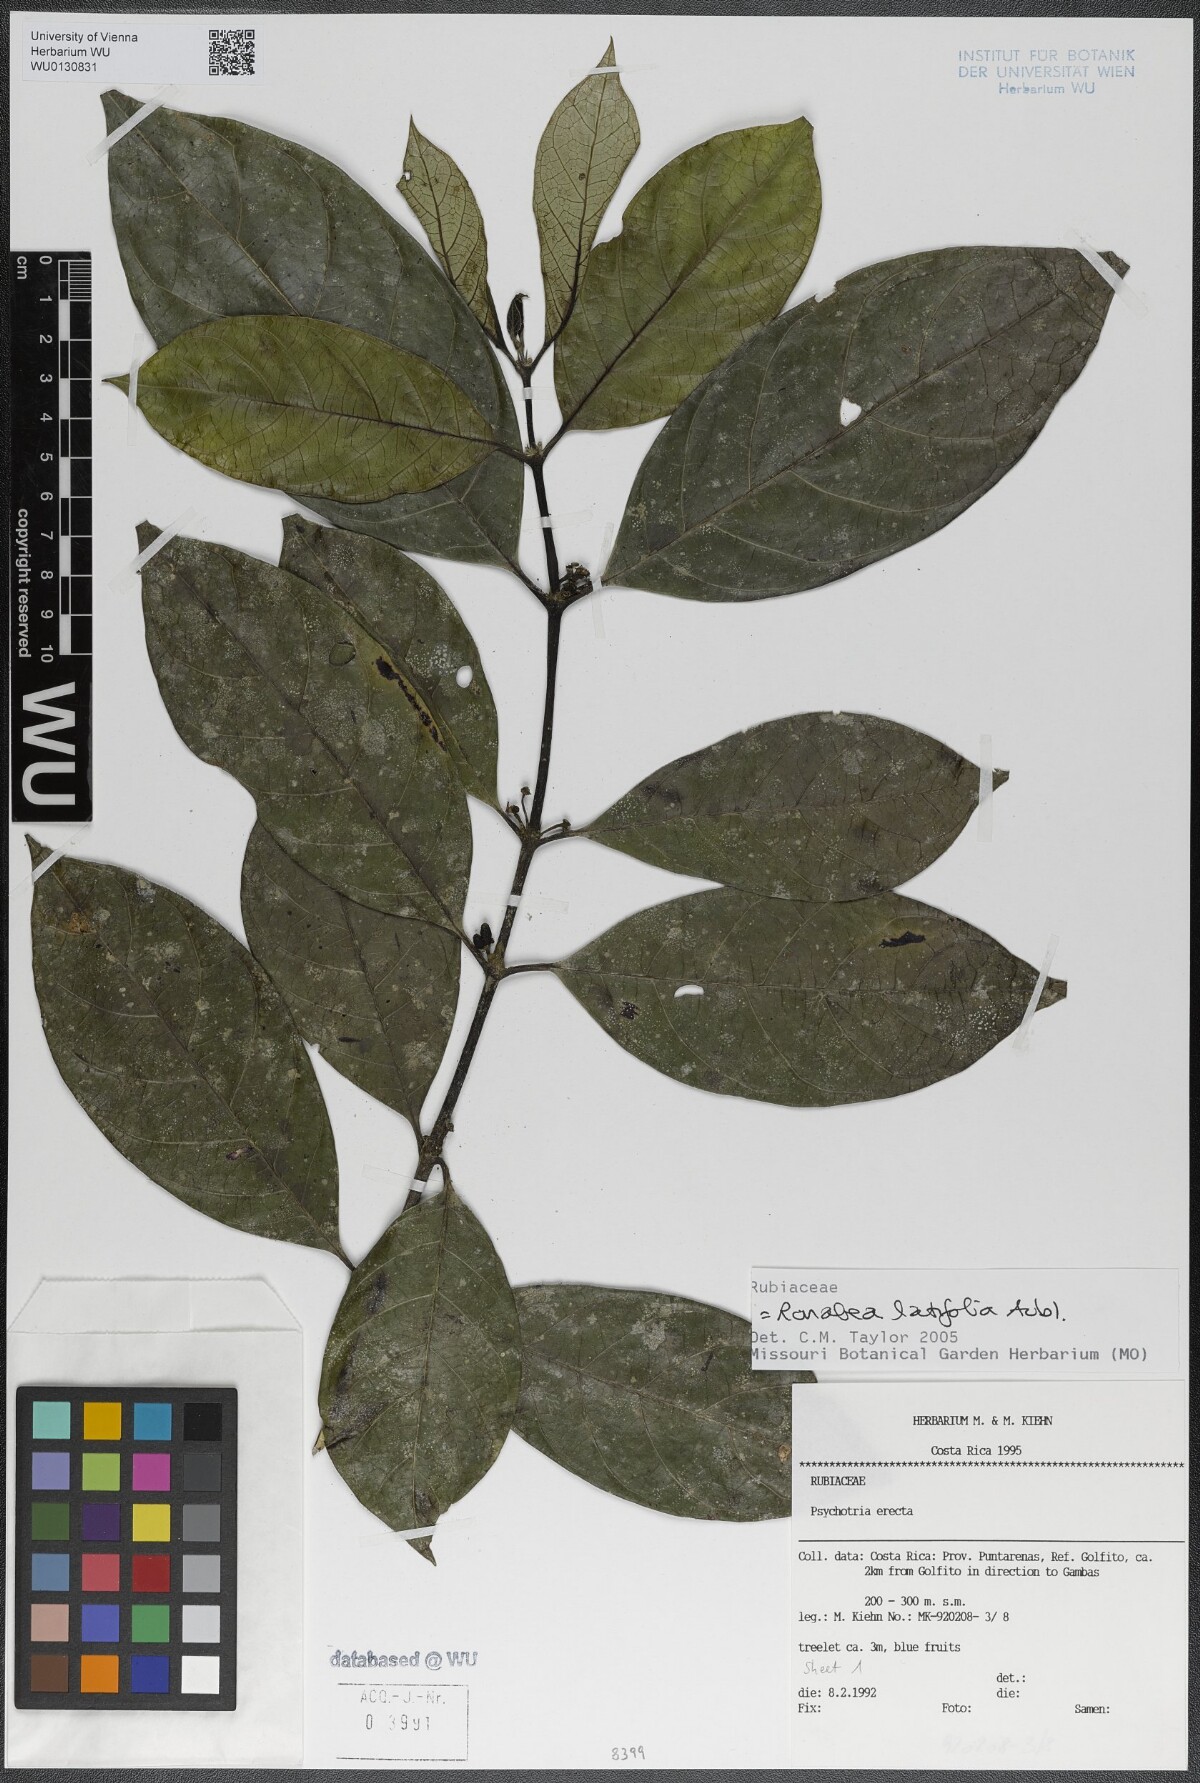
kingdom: Plantae
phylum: Tracheophyta
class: Magnoliopsida
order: Gentianales
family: Rubiaceae
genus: Ronabea
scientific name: Ronabea latifolia
